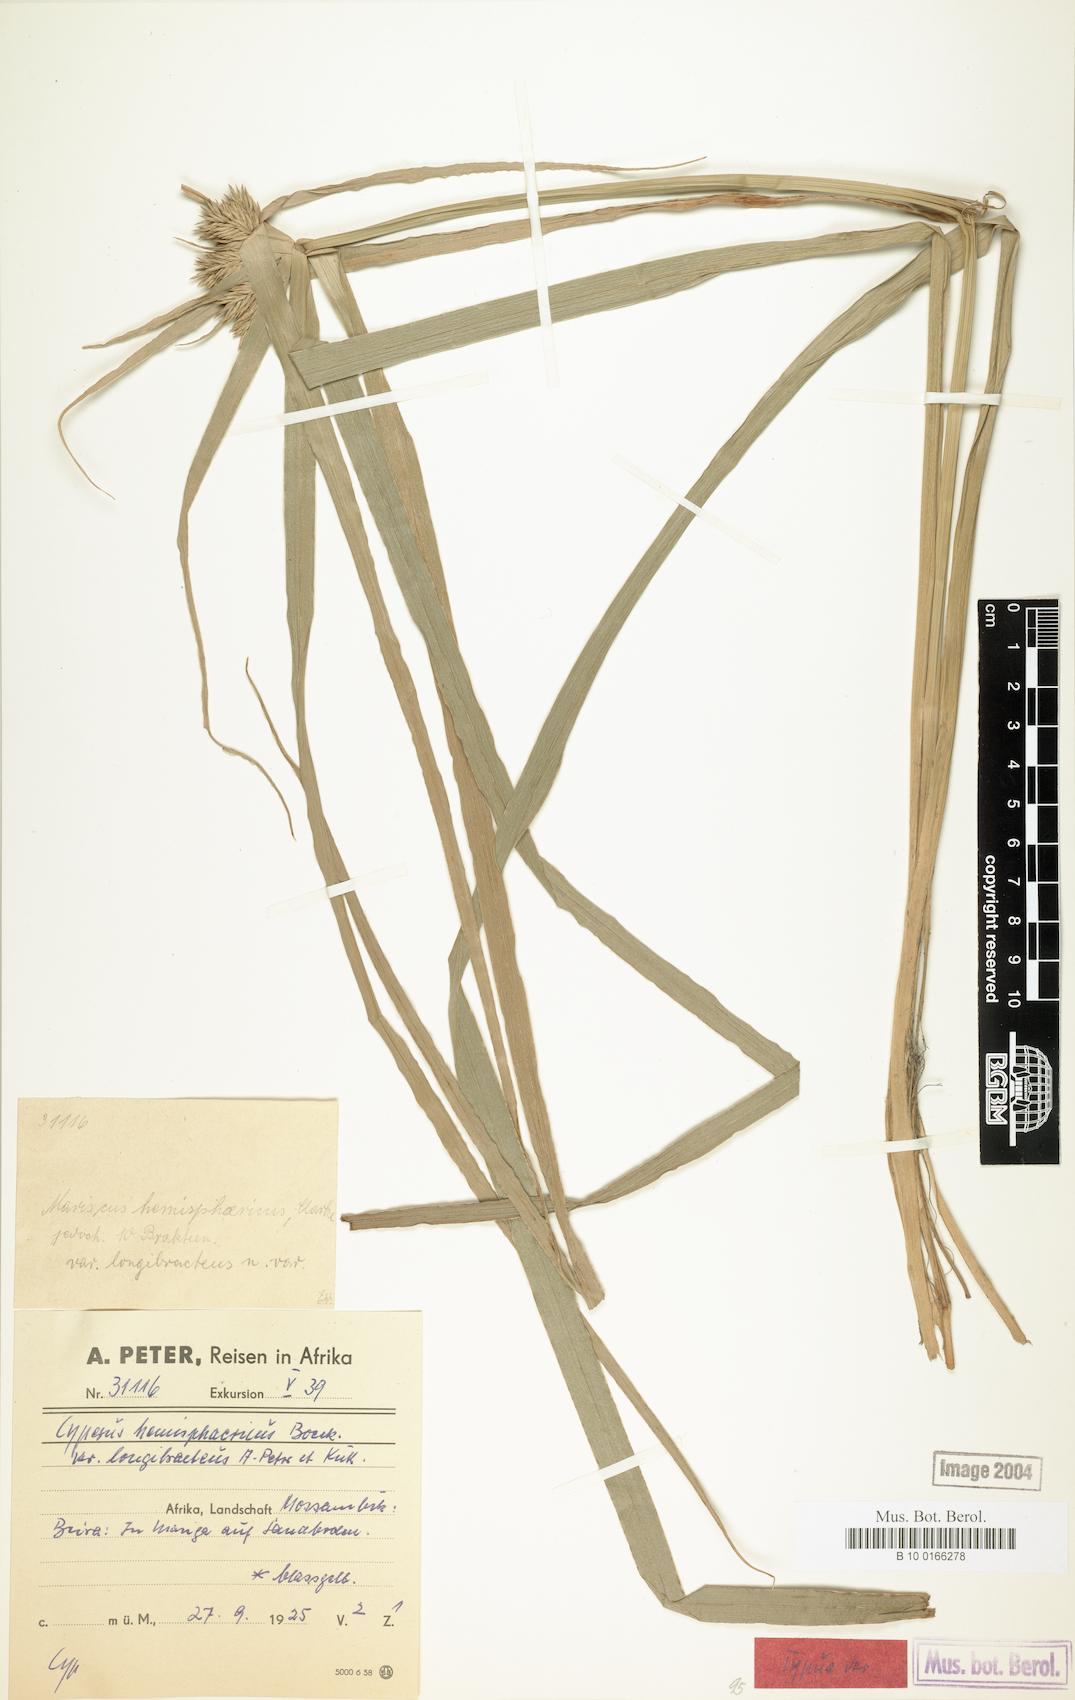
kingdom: Plantae
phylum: Tracheophyta
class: Liliopsida
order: Poales
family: Cyperaceae
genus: Cyperus
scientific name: Cyperus hemisphaericus
